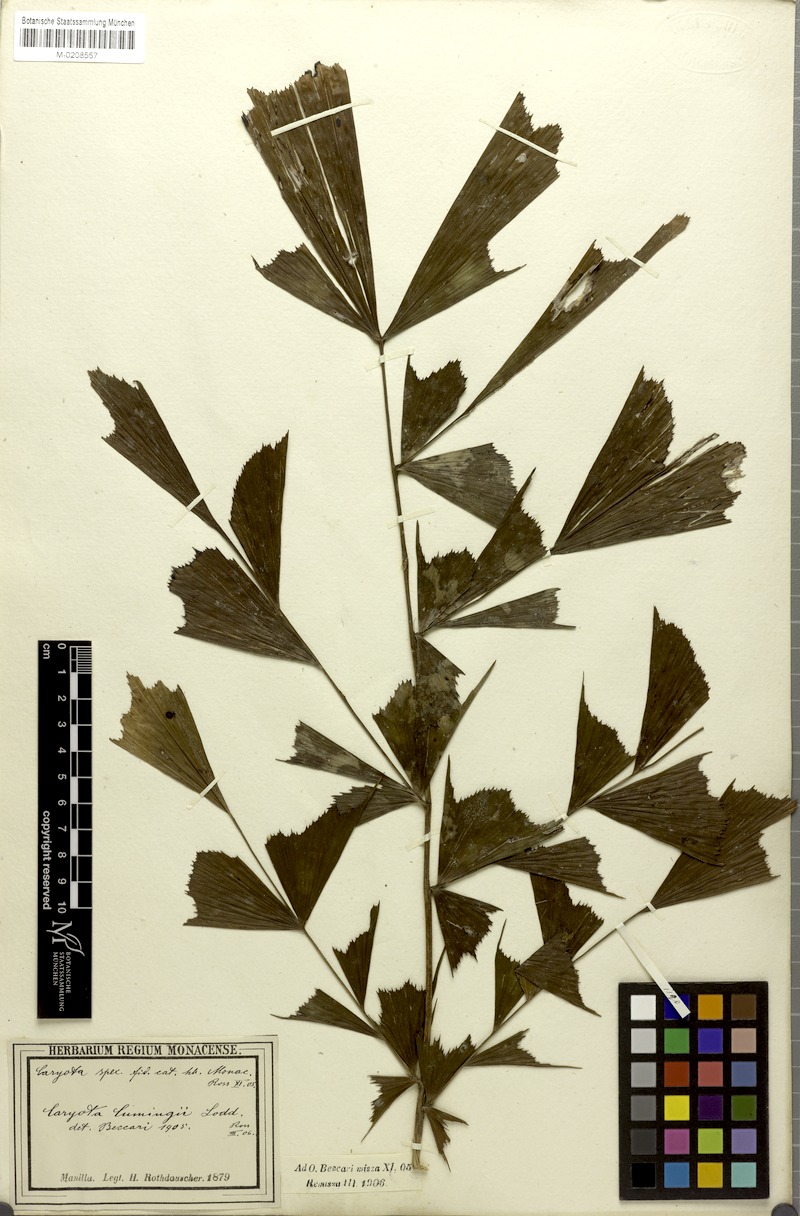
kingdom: Plantae
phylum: Tracheophyta
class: Liliopsida
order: Arecales
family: Arecaceae
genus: Caryota
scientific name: Caryota cumingii
